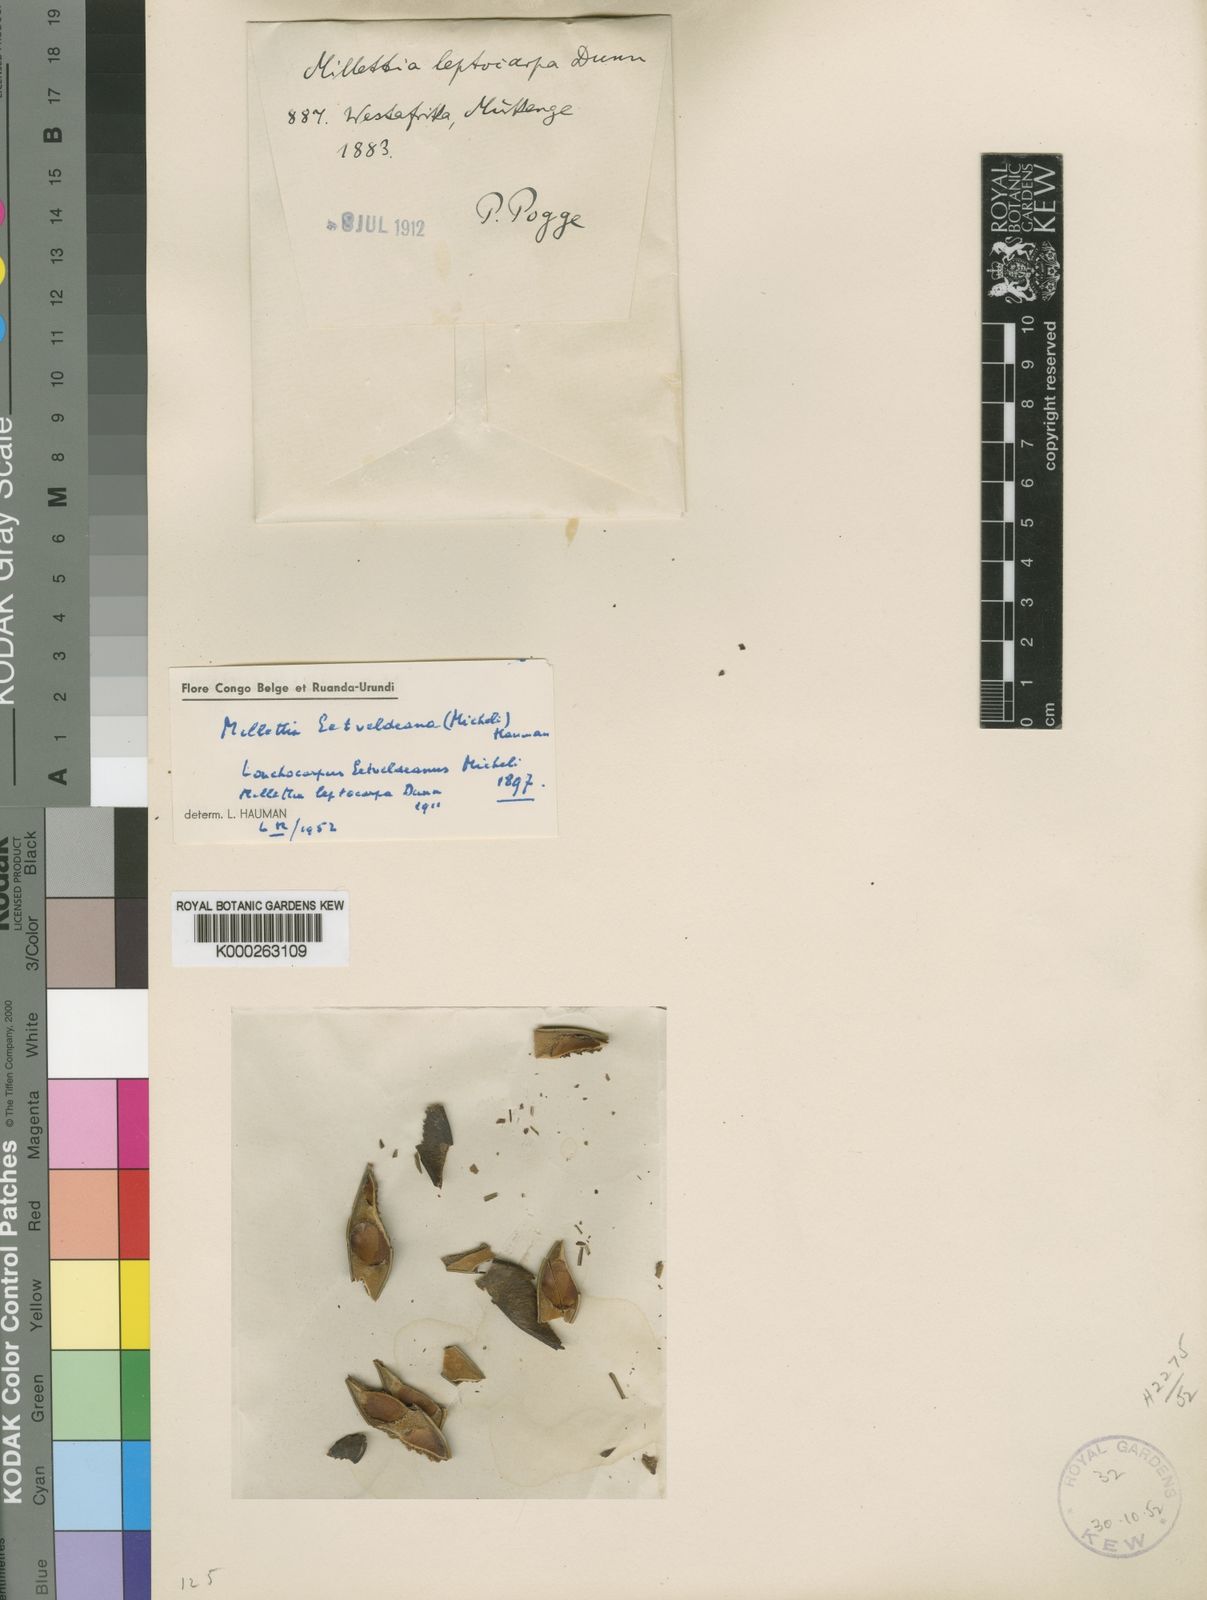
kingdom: Plantae
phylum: Tracheophyta
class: Magnoliopsida
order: Fabales
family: Fabaceae
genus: Millettia
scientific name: Millettia eetveldeana
